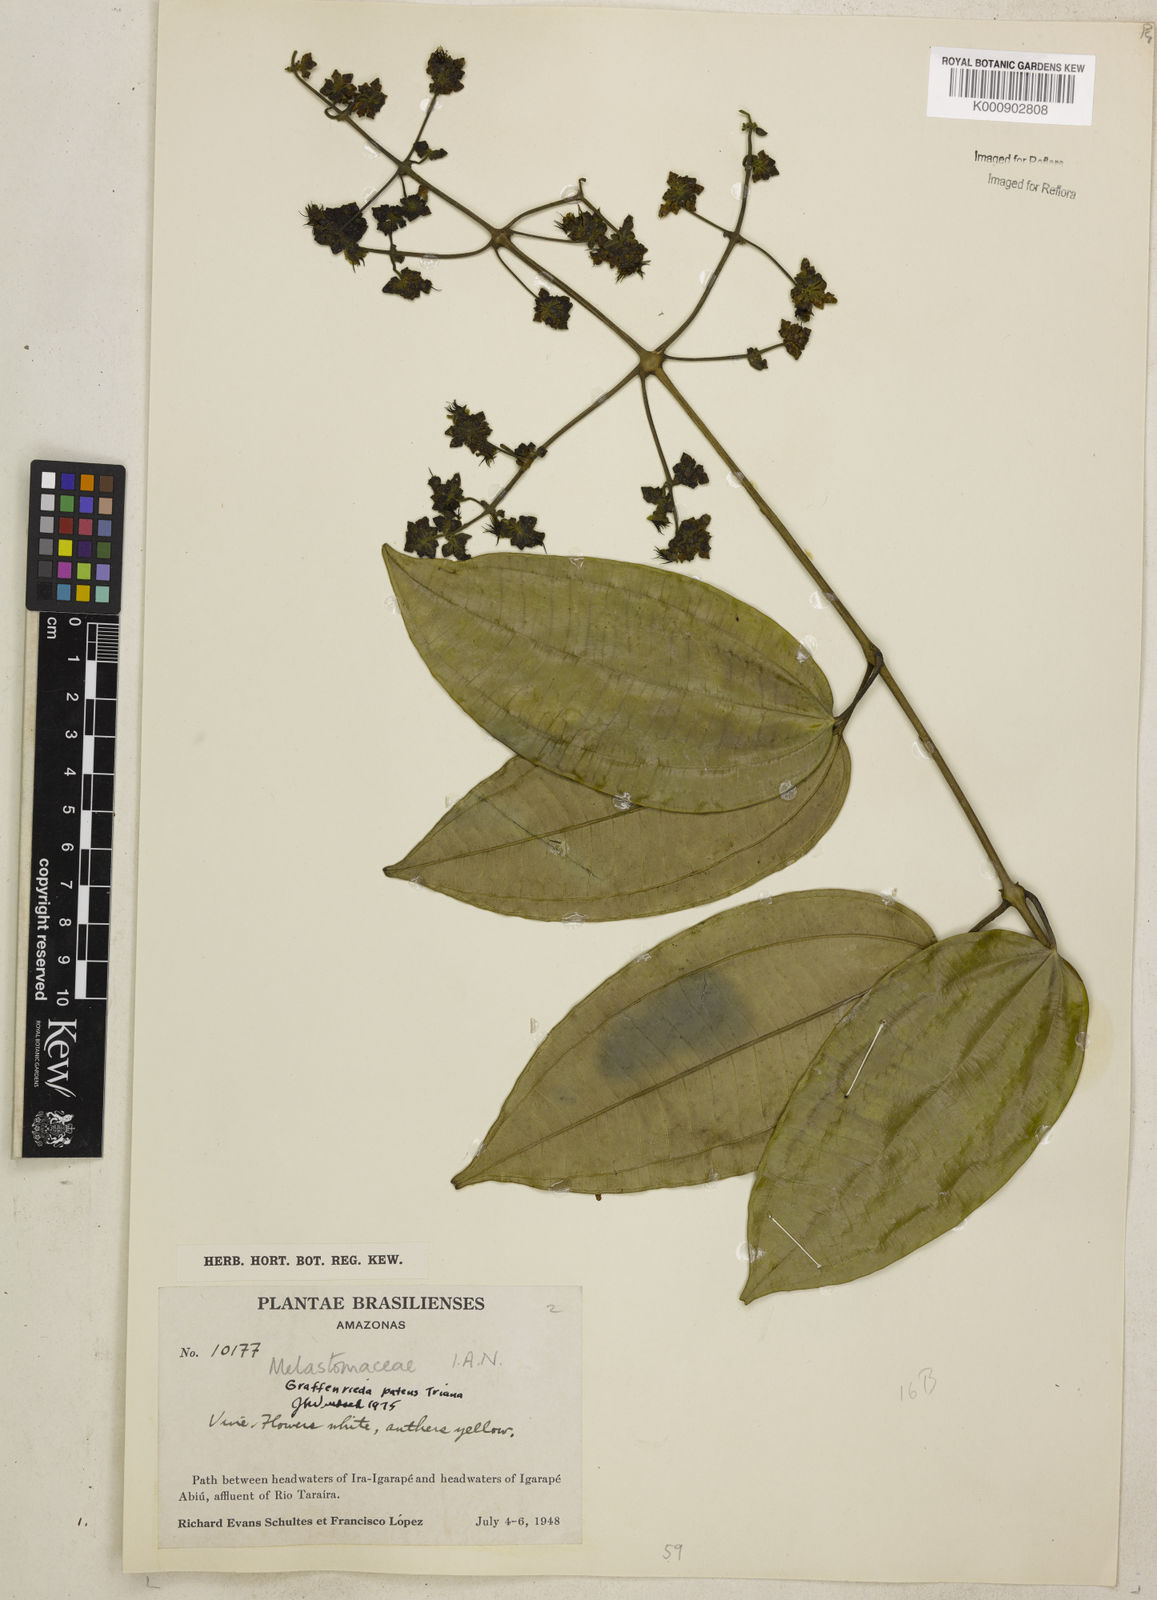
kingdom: Plantae
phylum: Tracheophyta
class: Magnoliopsida
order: Myrtales
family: Melastomataceae
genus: Graffenrieda
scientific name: Graffenrieda patens
